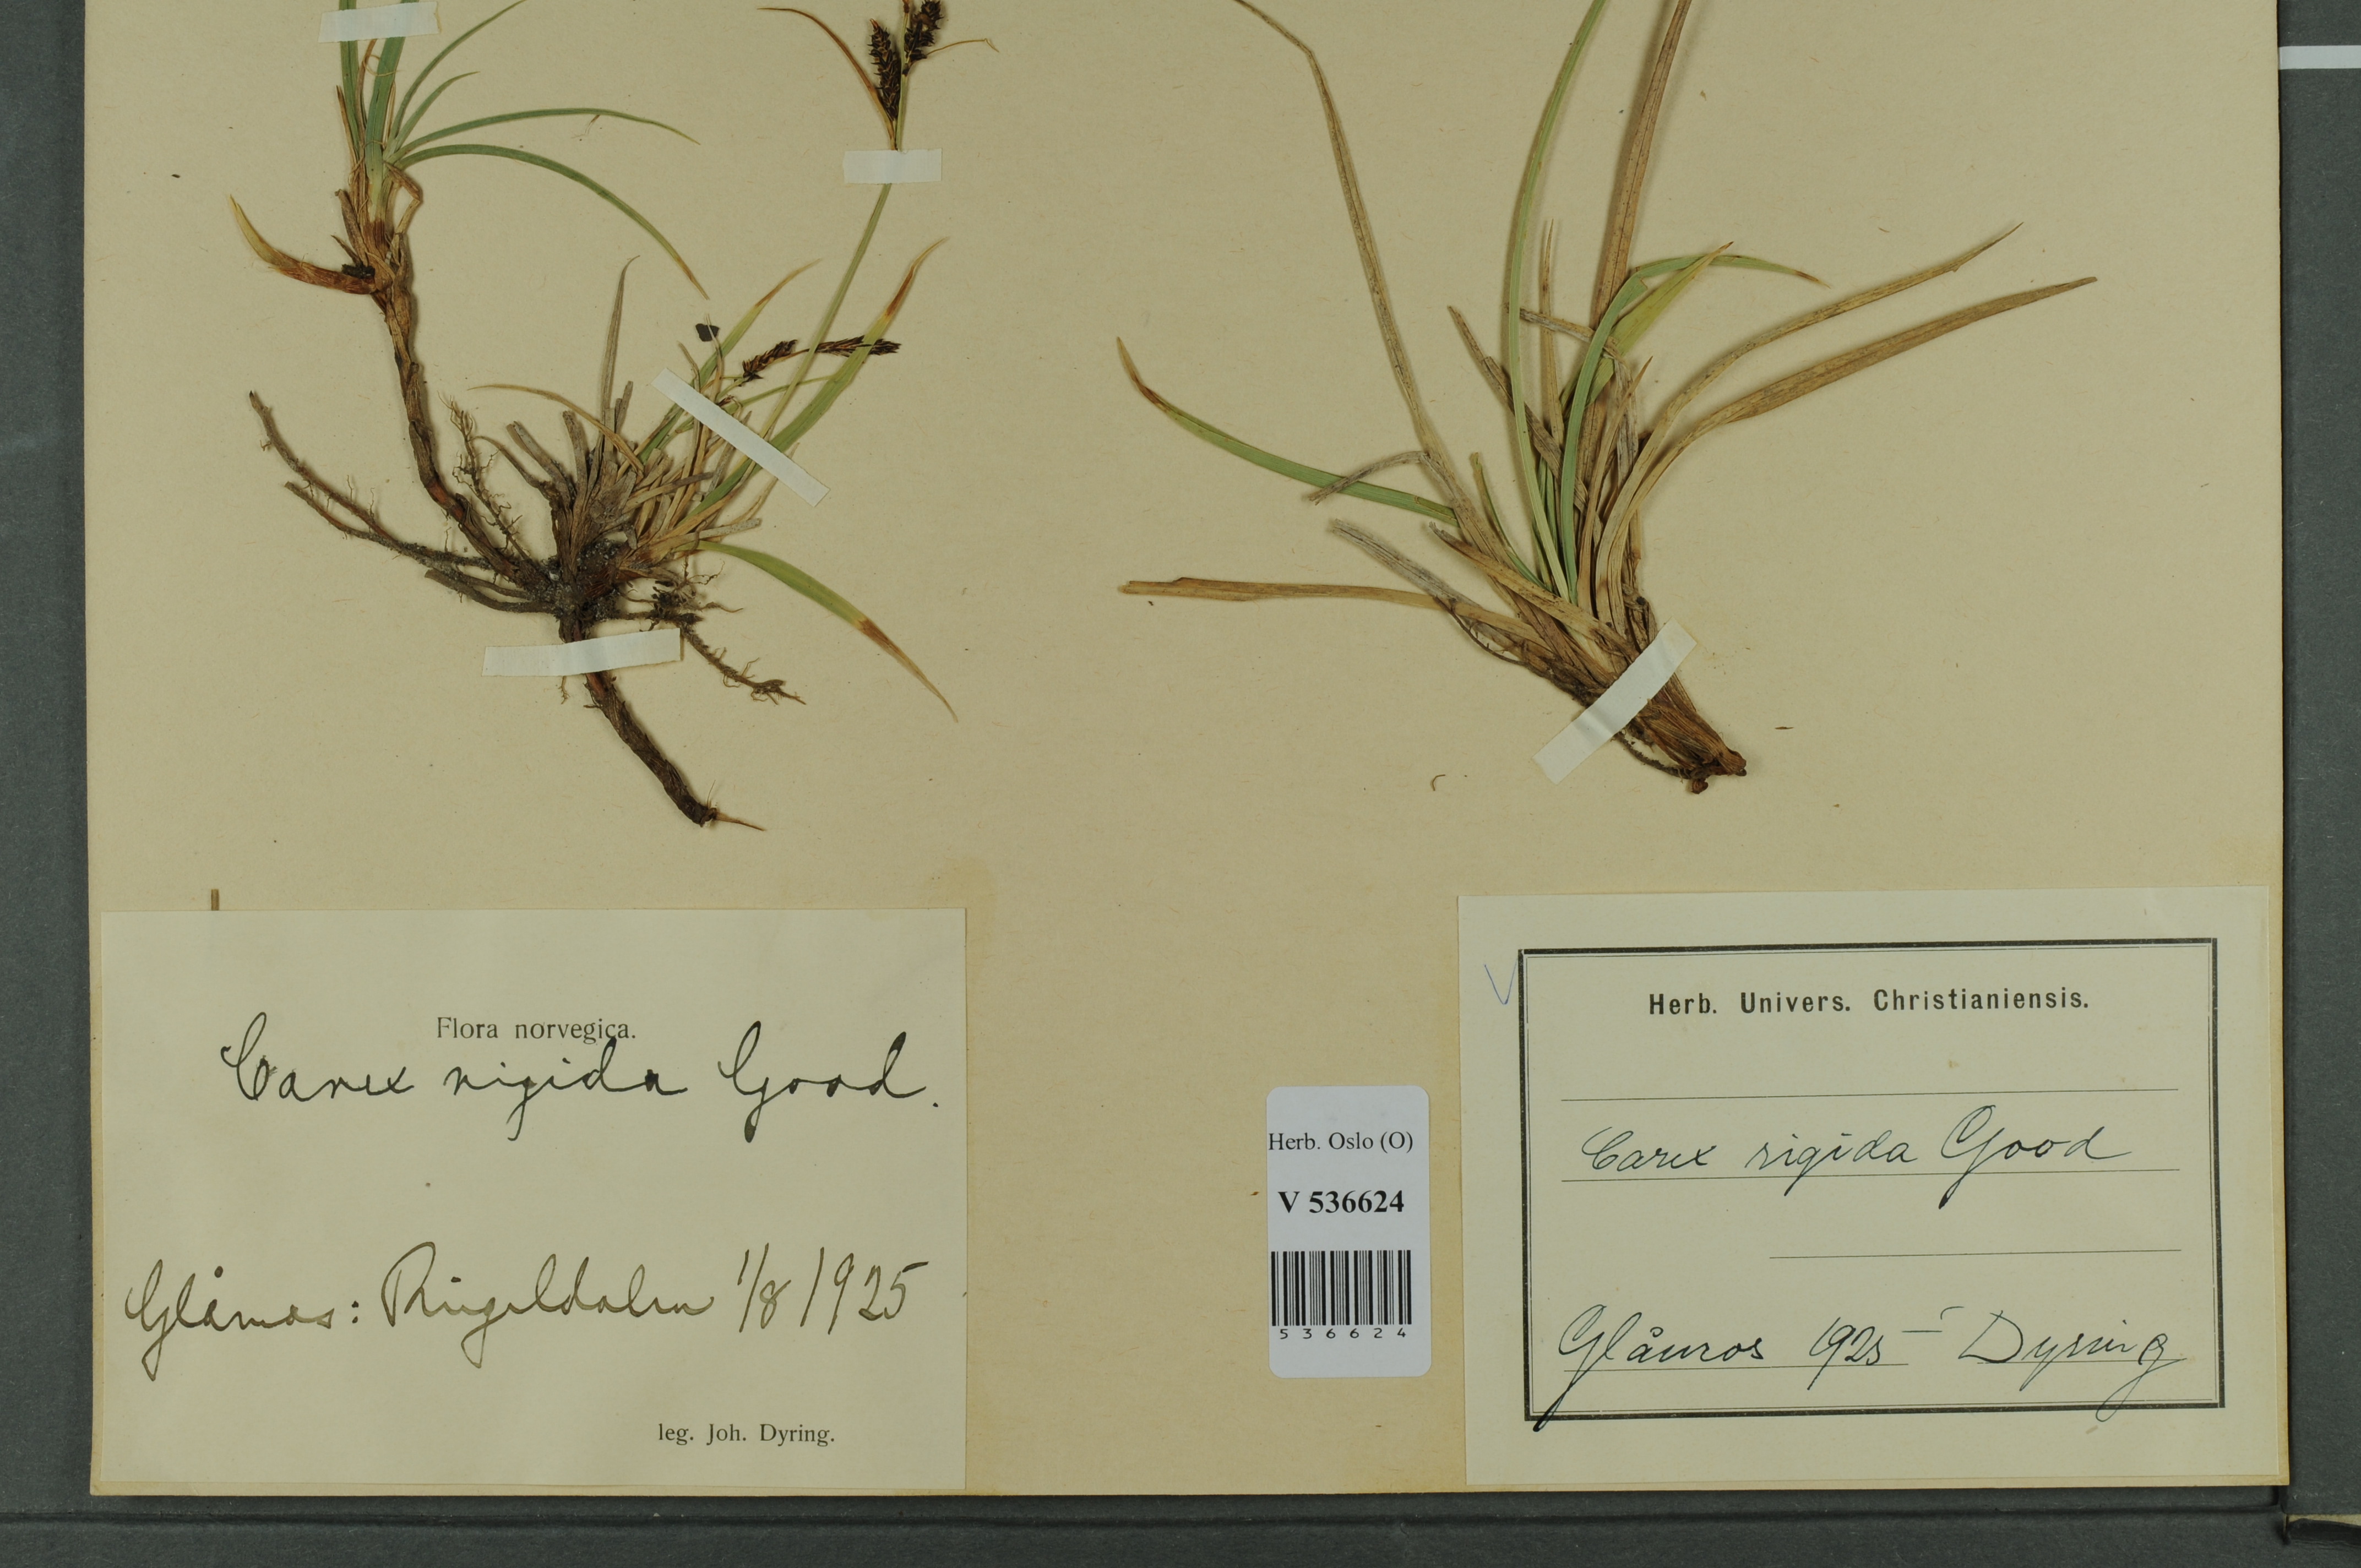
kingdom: Plantae
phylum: Tracheophyta
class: Liliopsida
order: Poales
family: Cyperaceae
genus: Carex
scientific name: Carex dacica
